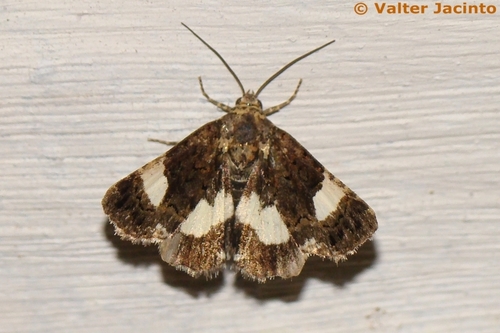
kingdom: Animalia
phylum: Arthropoda
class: Insecta
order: Lepidoptera
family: Erebidae
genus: Tyta
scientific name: Tyta luctuosa
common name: Four-spotted
